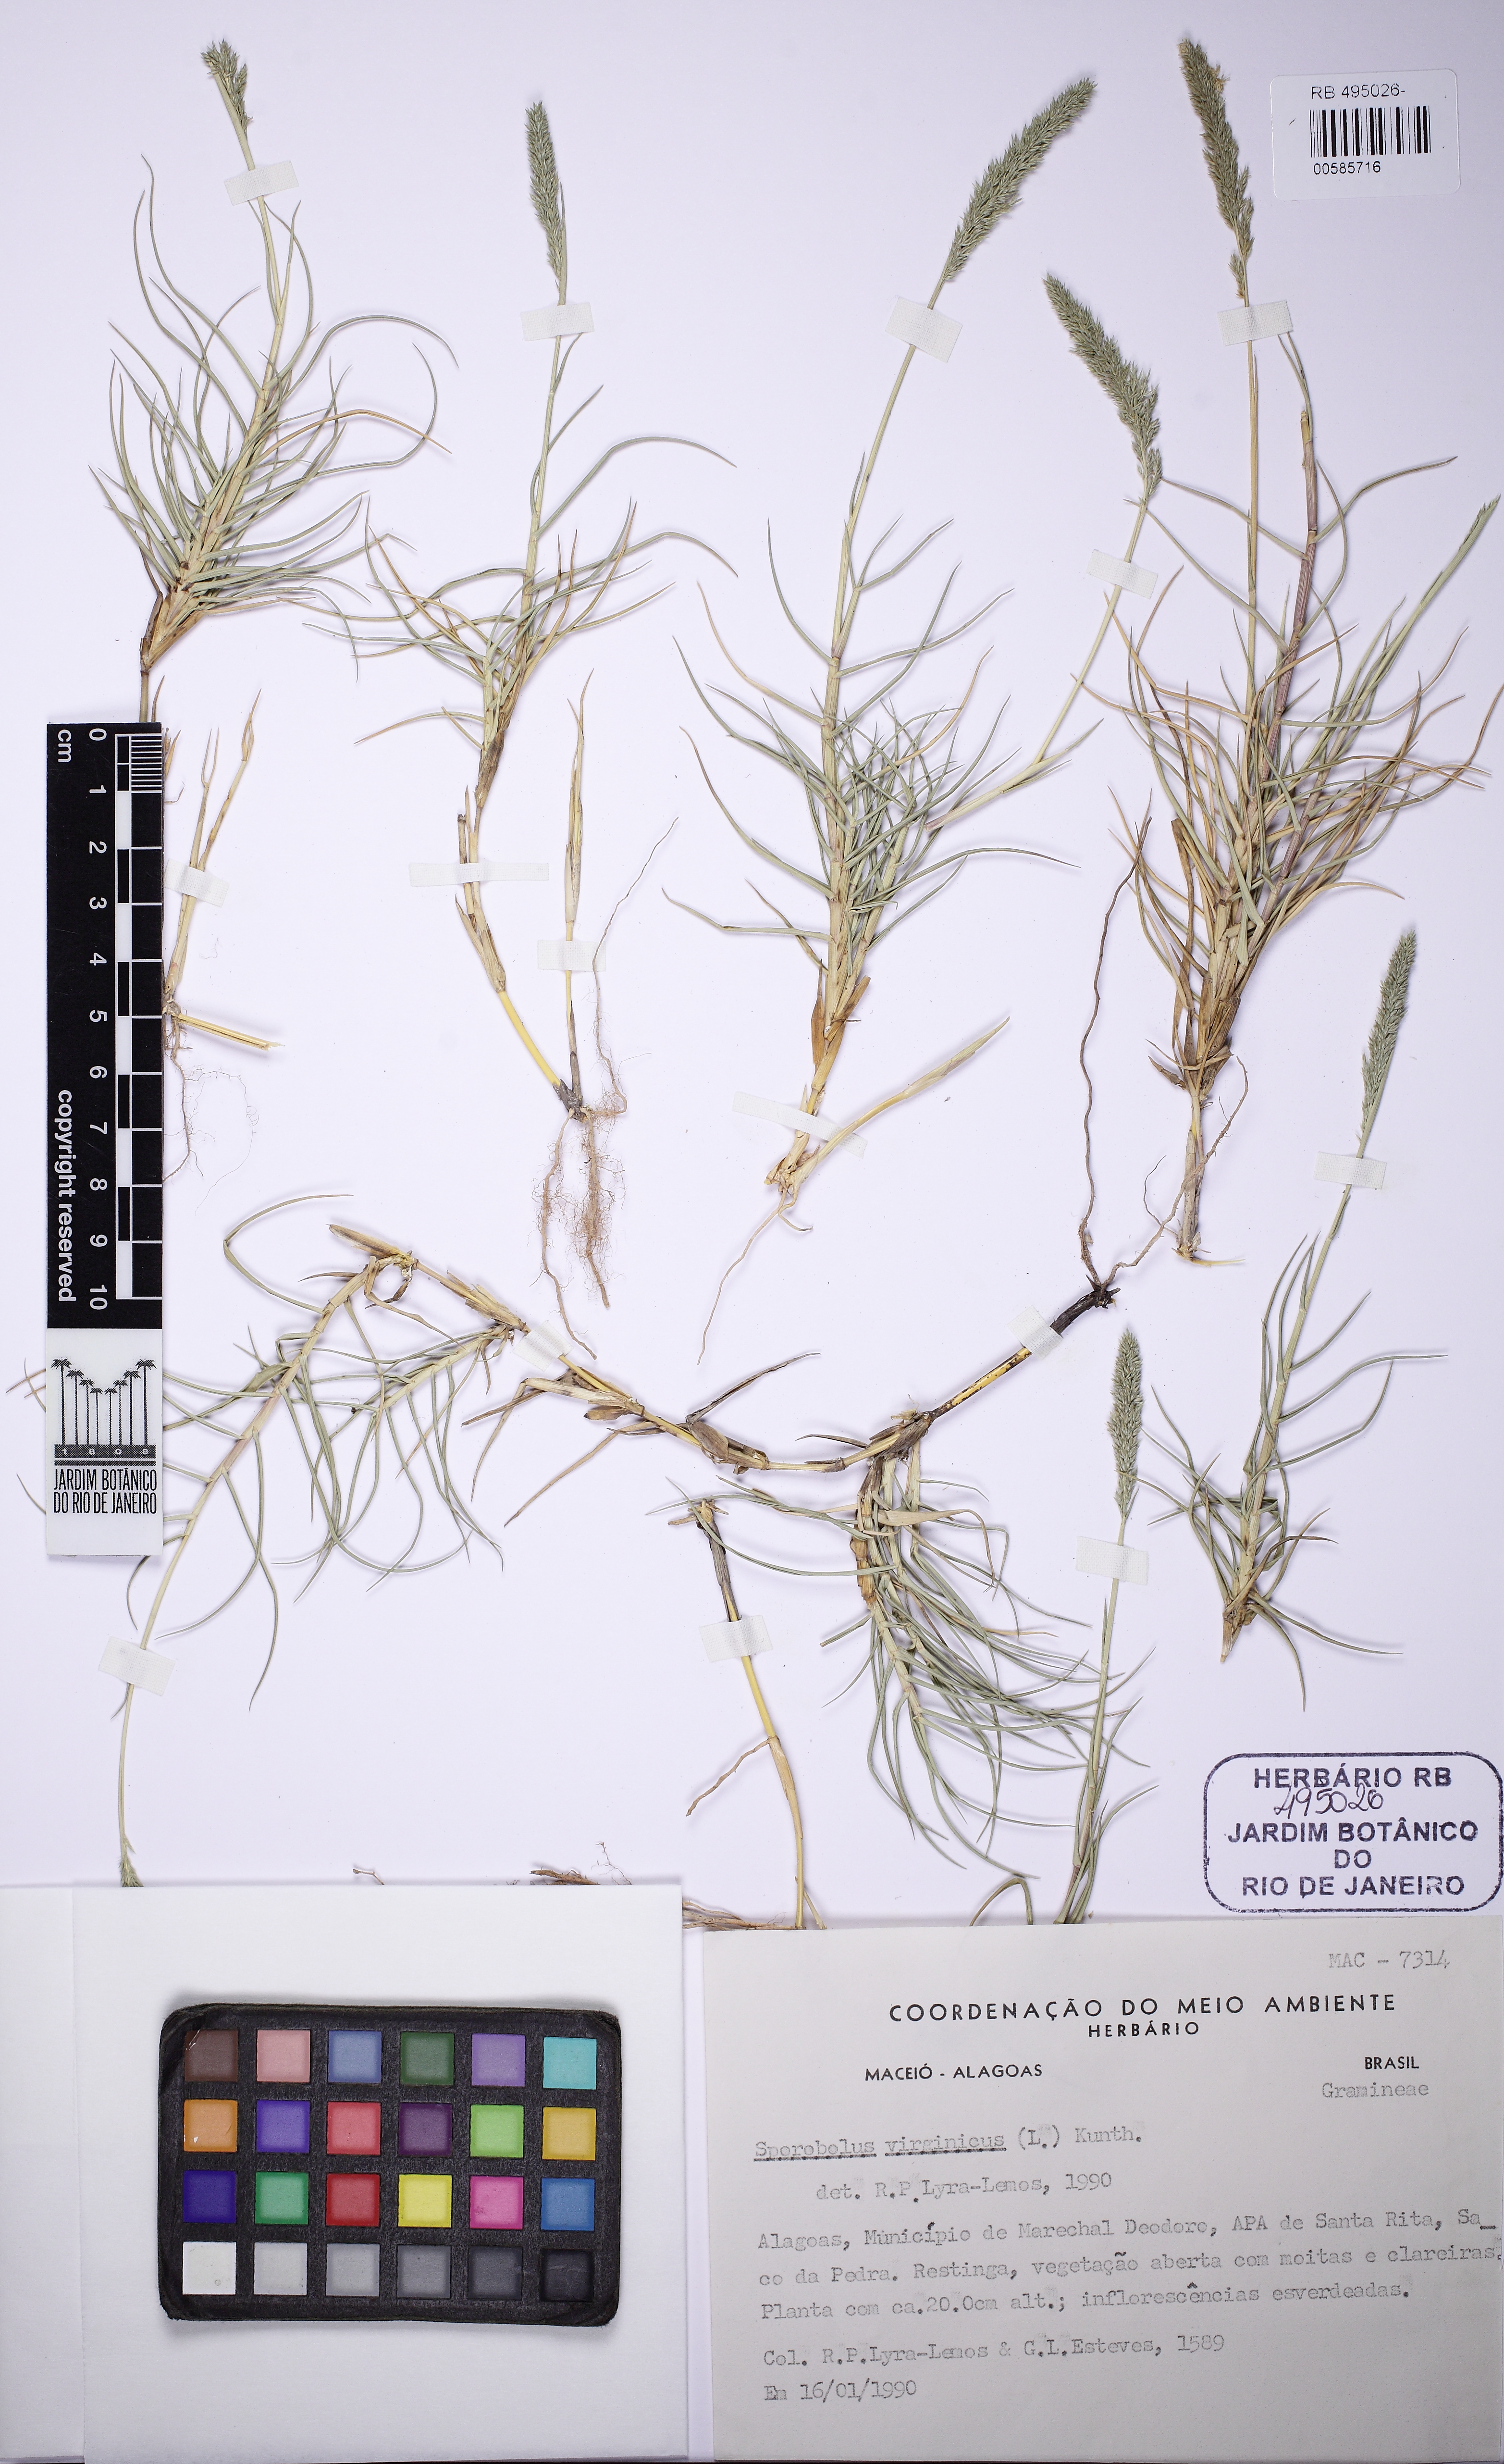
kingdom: Plantae
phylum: Tracheophyta
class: Liliopsida
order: Poales
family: Poaceae
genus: Sporobolus
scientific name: Sporobolus virginicus
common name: Beach dropseed
